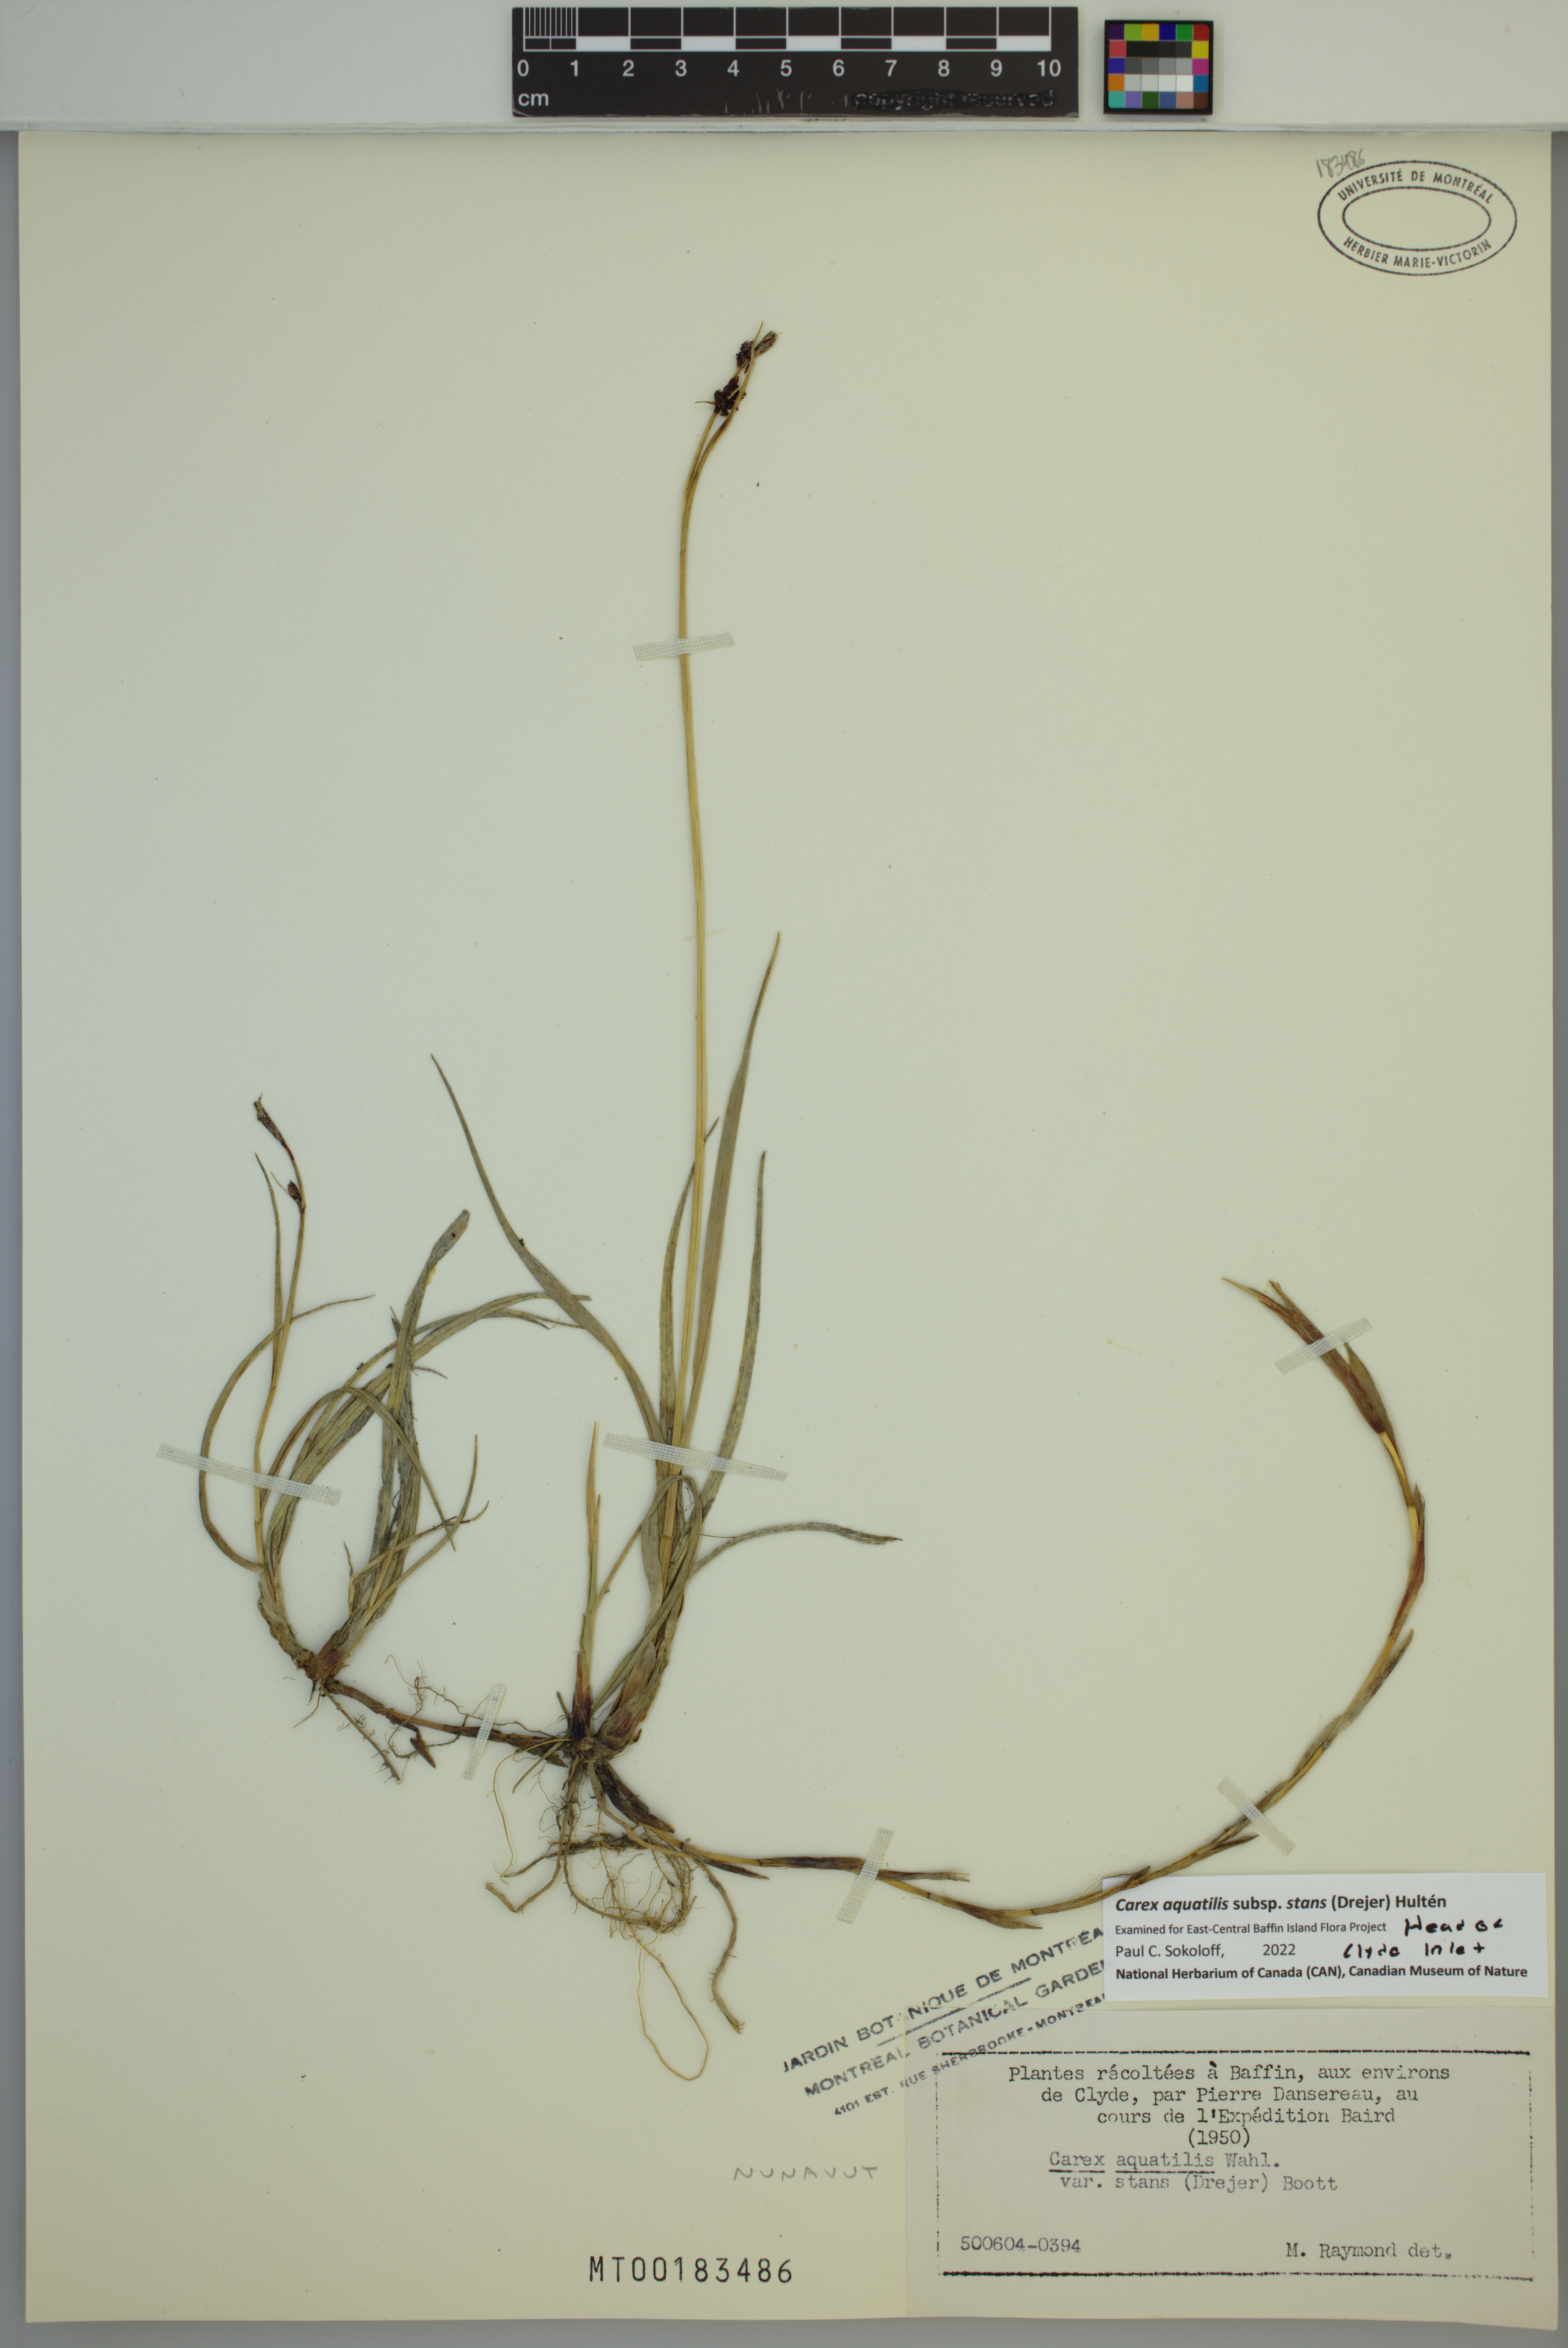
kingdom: Plantae
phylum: Tracheophyta
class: Liliopsida
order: Poales
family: Cyperaceae
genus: Carex
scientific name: Carex aquatilis
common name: Water sedge
